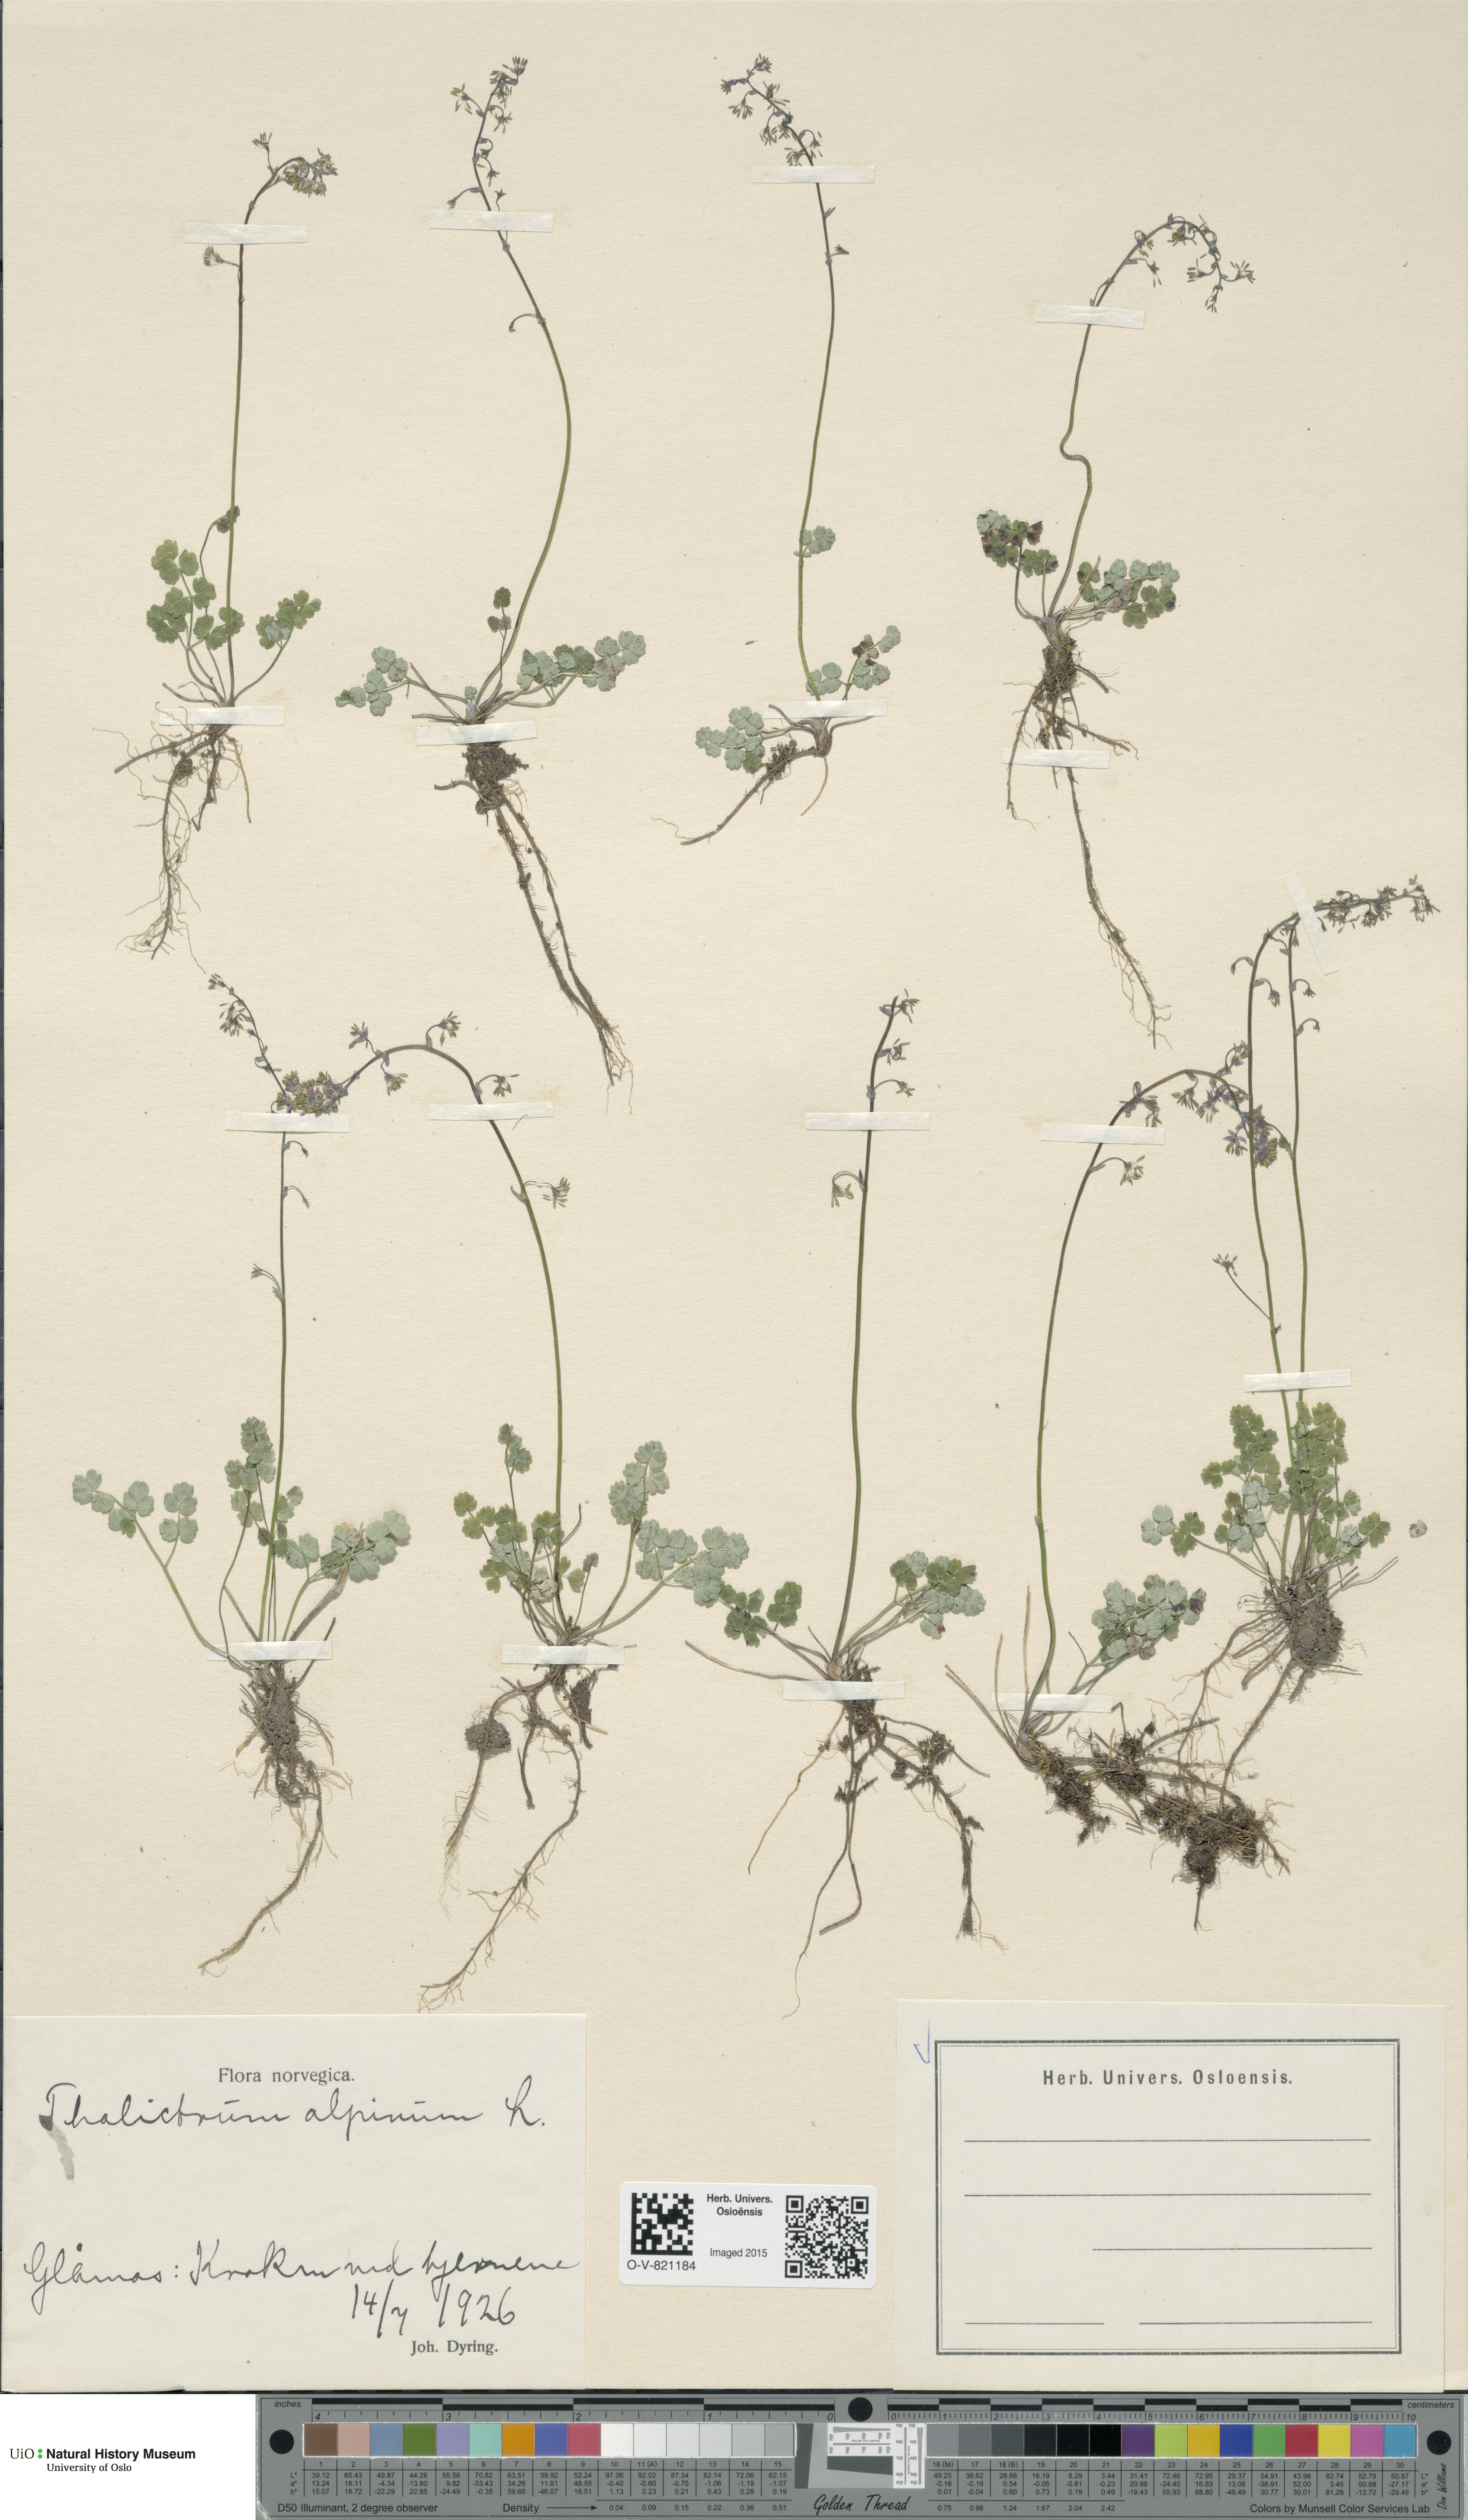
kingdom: Plantae
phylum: Tracheophyta
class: Magnoliopsida
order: Ranunculales
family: Ranunculaceae
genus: Thalictrum
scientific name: Thalictrum alpinum
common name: Alpine meadow-rue
